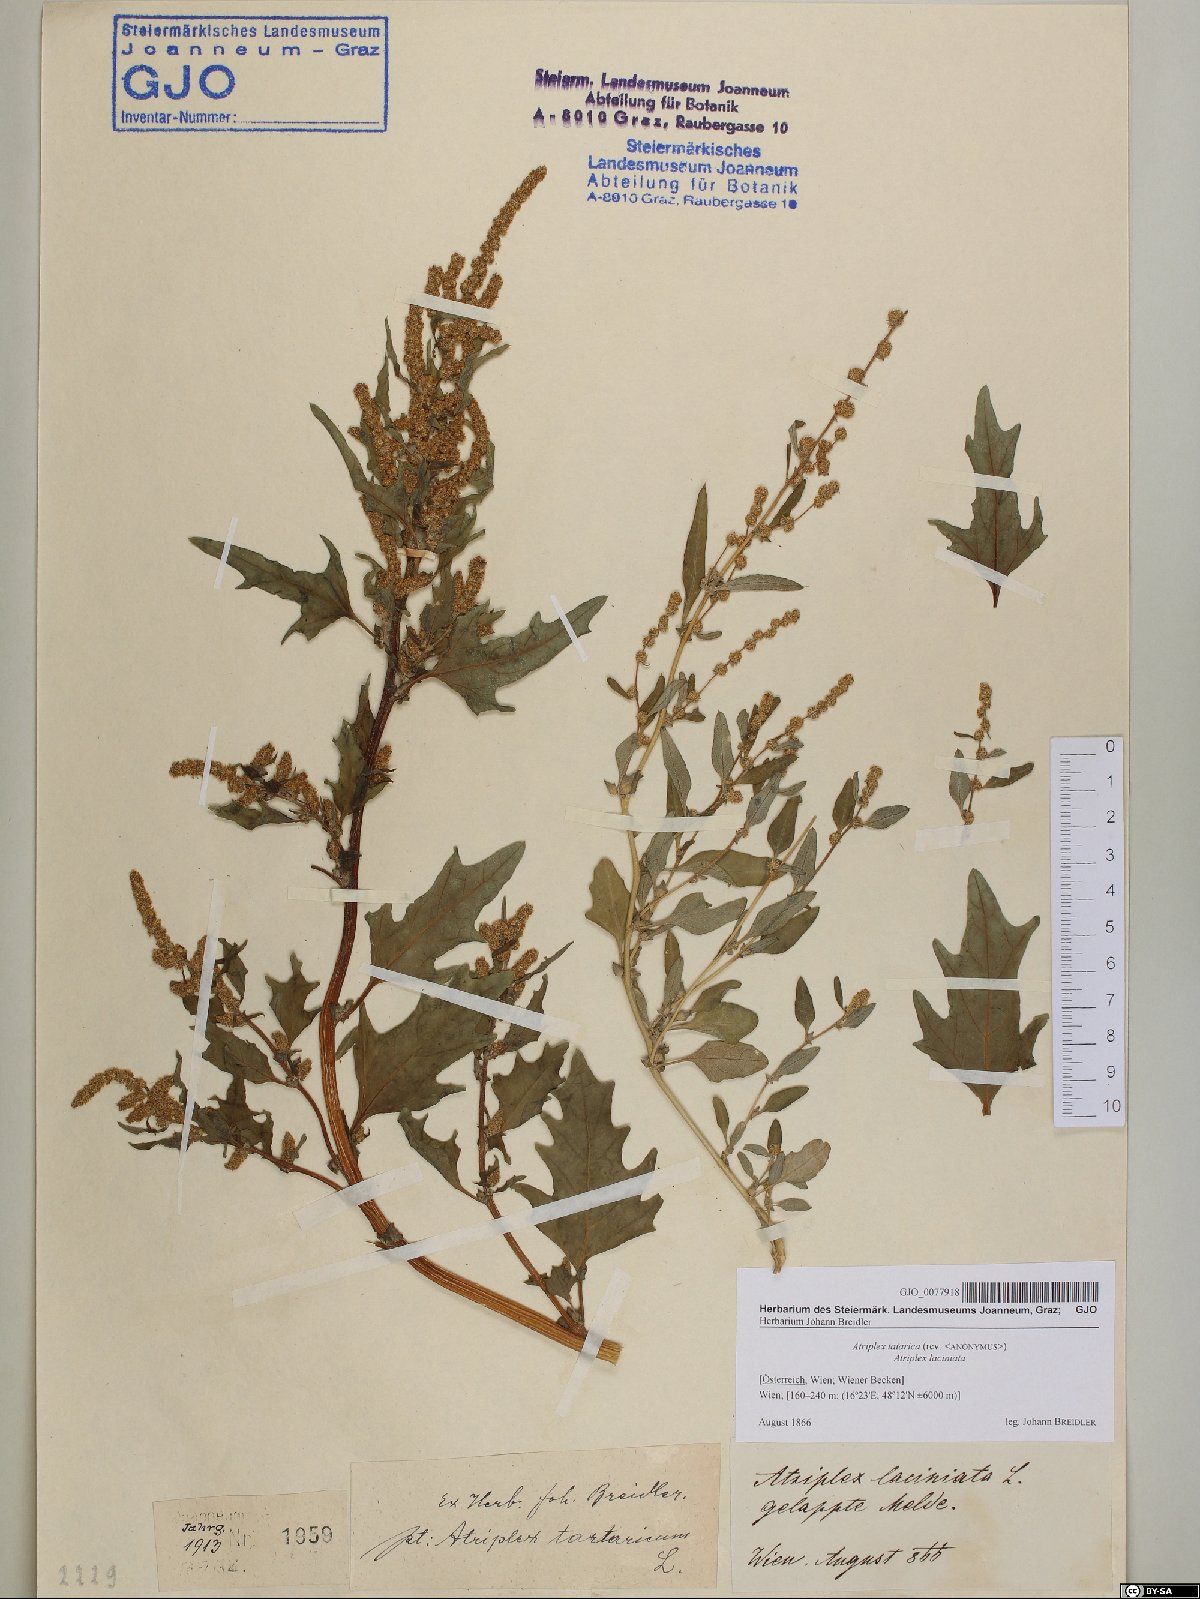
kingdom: Plantae
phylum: Tracheophyta
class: Magnoliopsida
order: Caryophyllales
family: Amaranthaceae
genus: Atriplex
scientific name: Atriplex tatarica
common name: Tatarian orache
